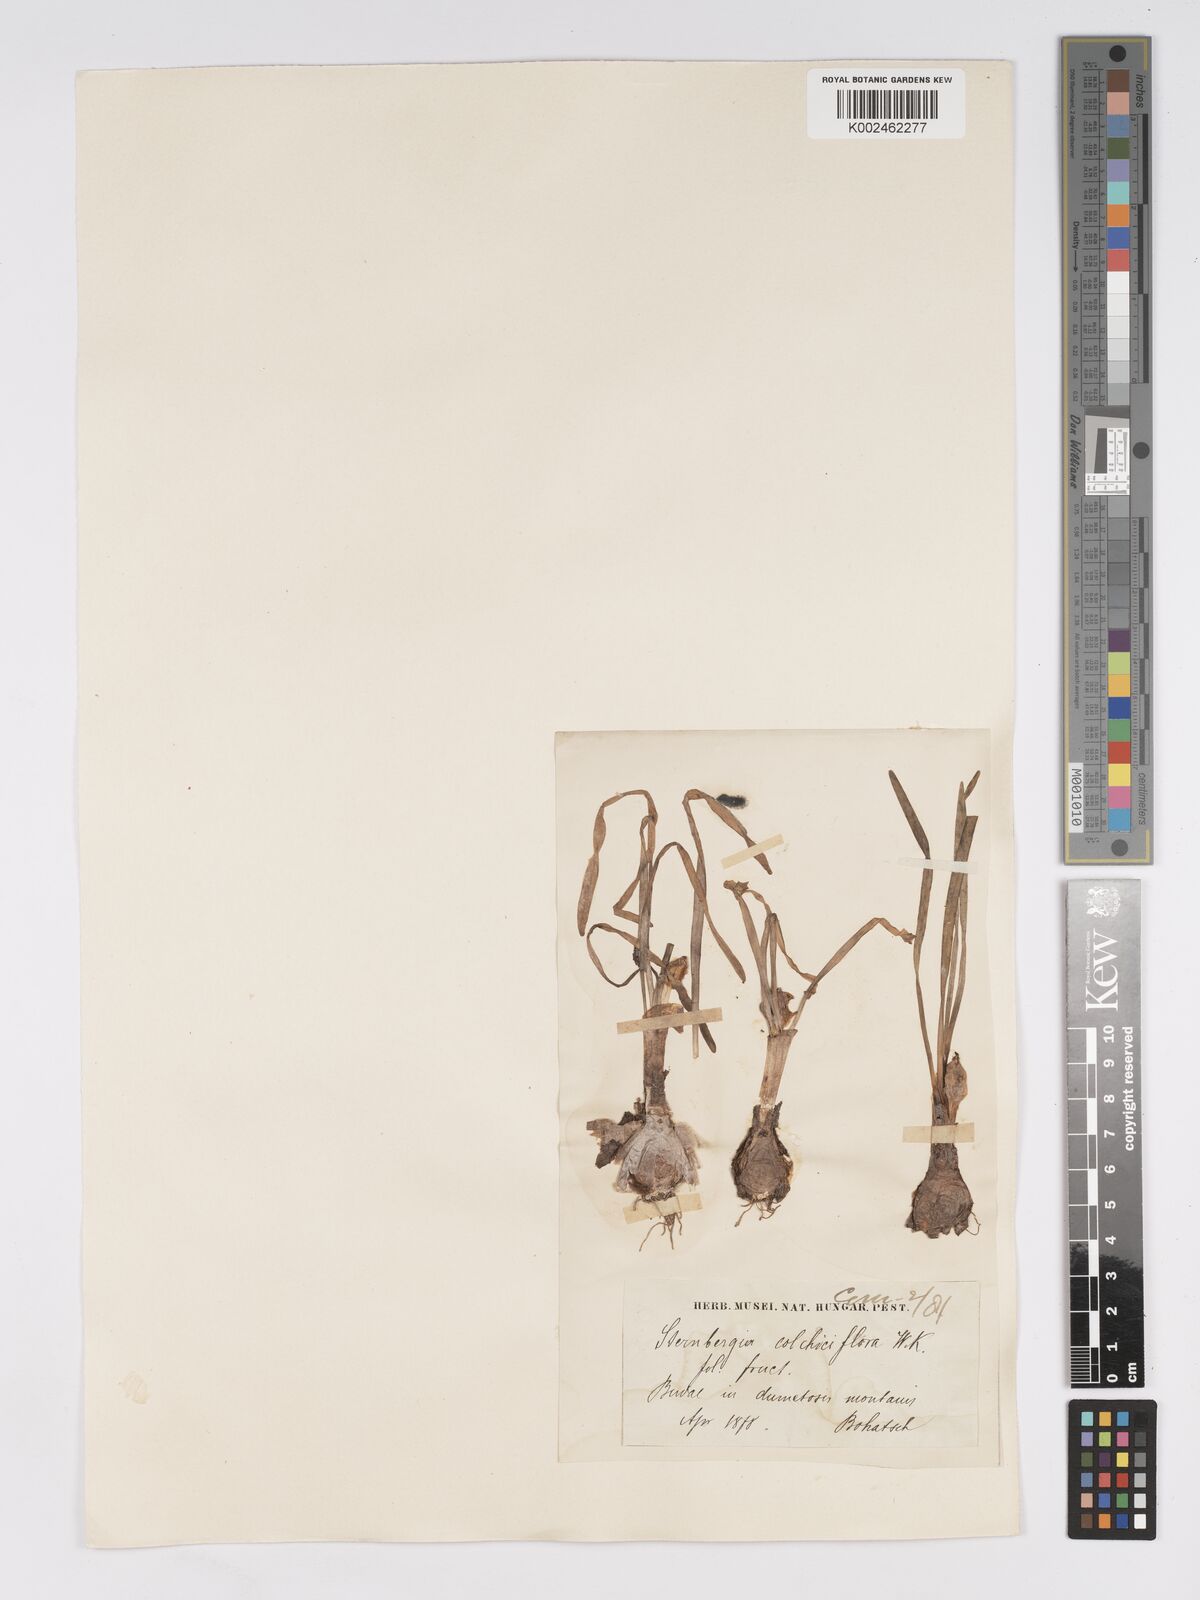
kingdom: Plantae
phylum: Tracheophyta
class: Liliopsida
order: Asparagales
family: Amaryllidaceae
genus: Sternbergia
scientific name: Sternbergia colchiciflora
